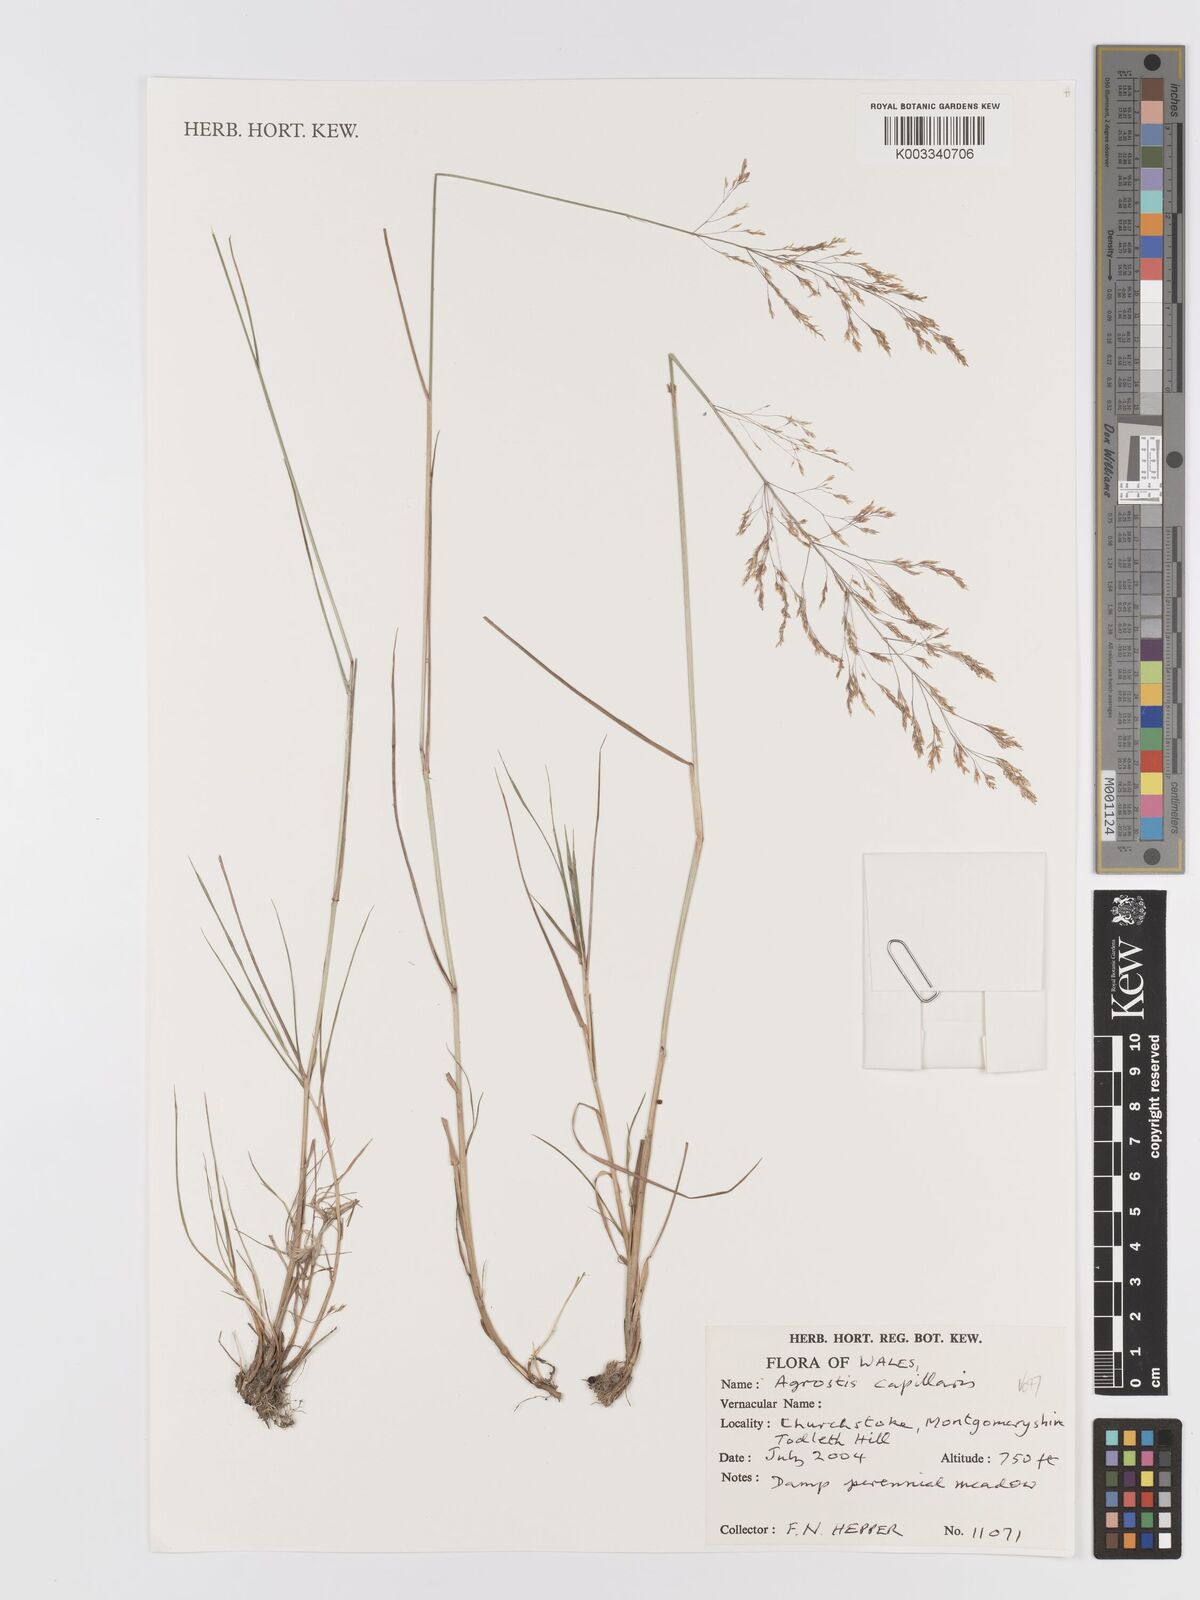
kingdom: Plantae
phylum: Tracheophyta
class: Liliopsida
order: Poales
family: Poaceae
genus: Agrostis
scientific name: Agrostis capillaris
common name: Colonial bentgrass
